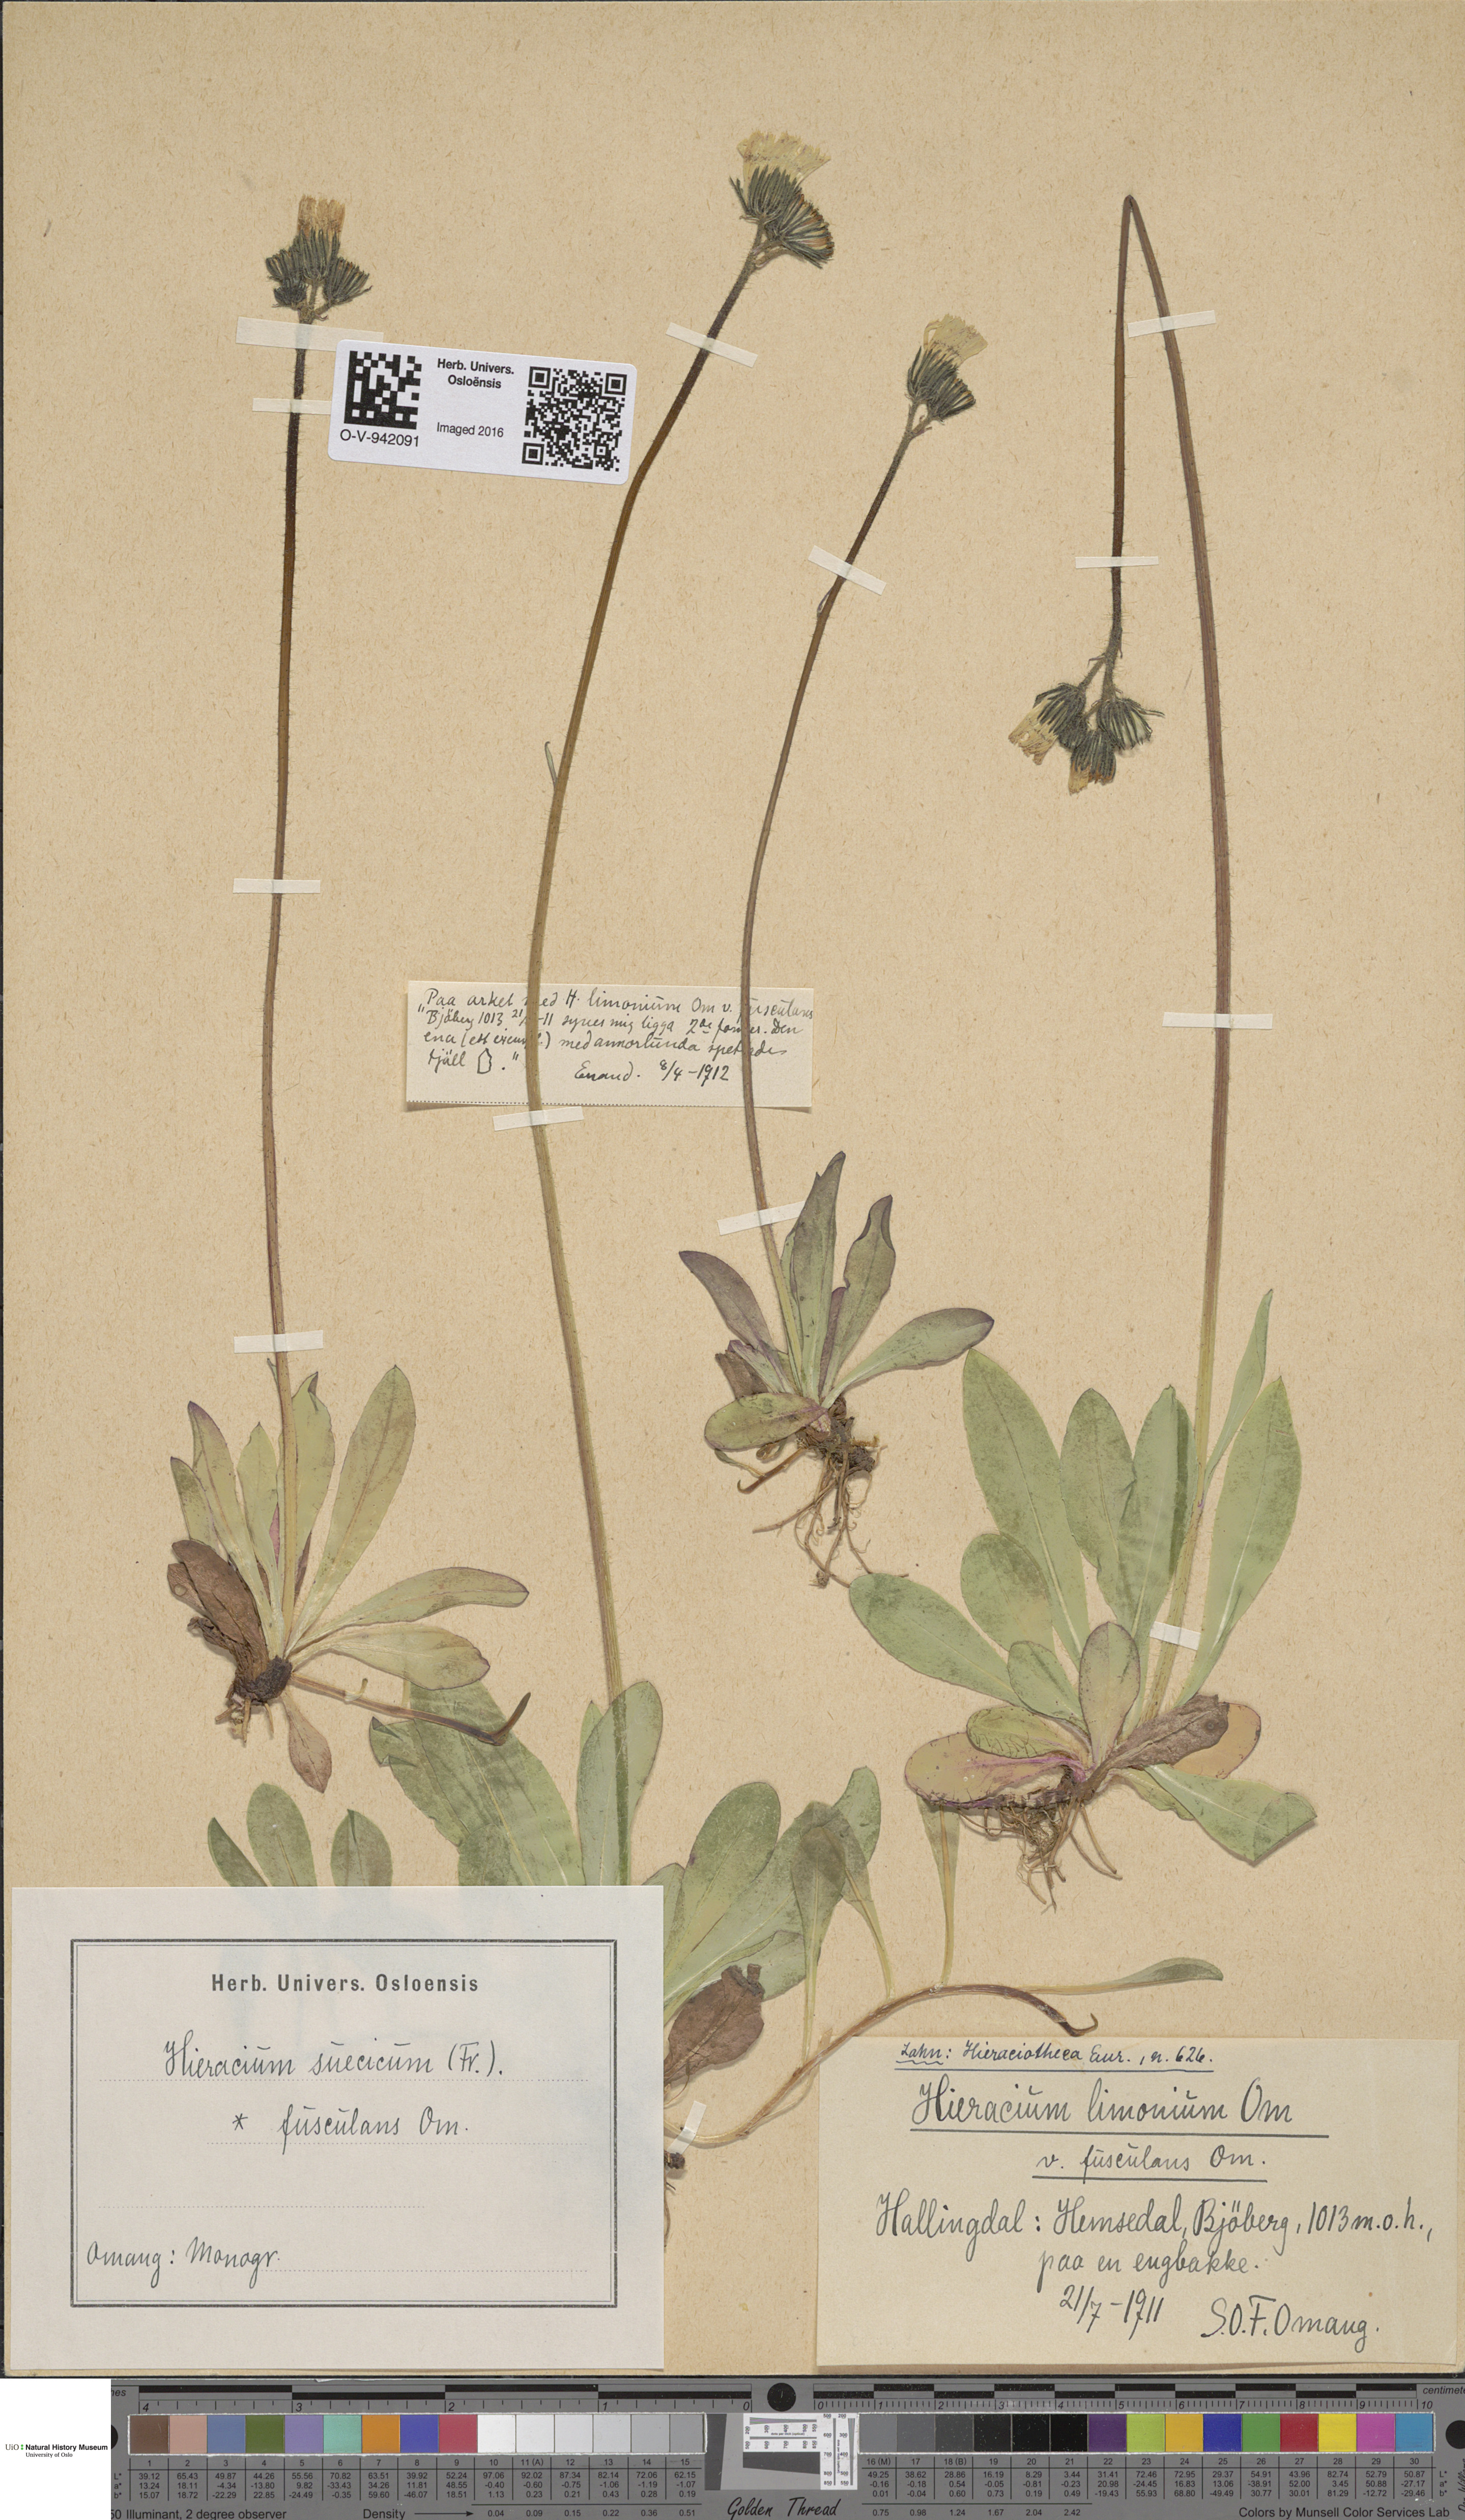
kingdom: Plantae
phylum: Tracheophyta
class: Magnoliopsida
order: Asterales
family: Asteraceae
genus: Pilosella
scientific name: Pilosella dubia
